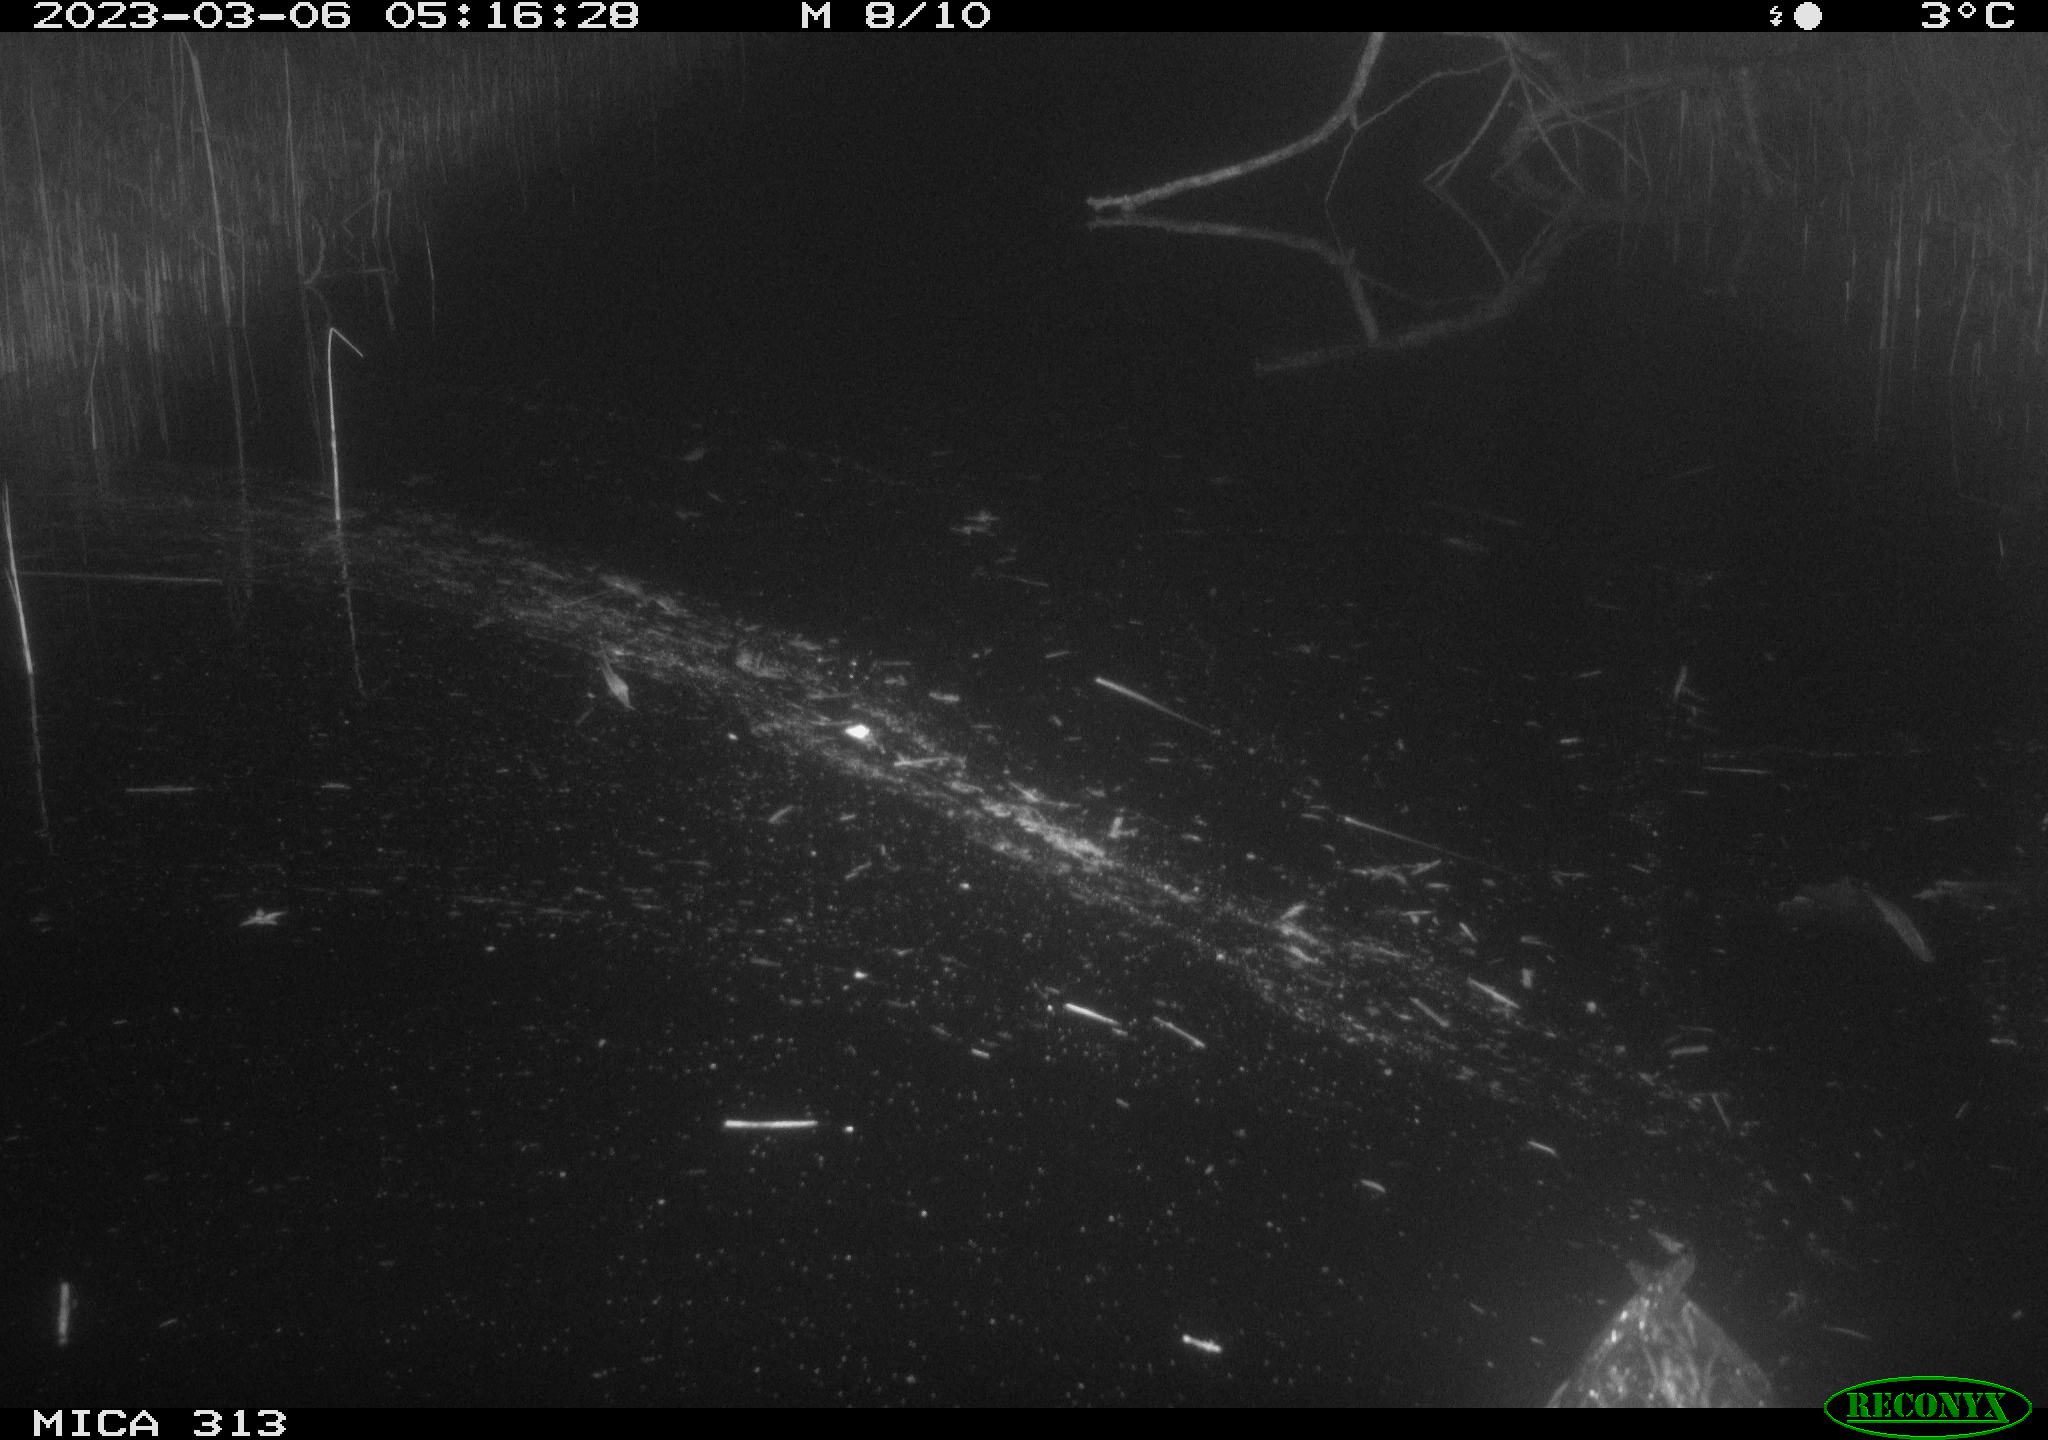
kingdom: Animalia
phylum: Chordata
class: Mammalia
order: Rodentia
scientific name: Rodentia
